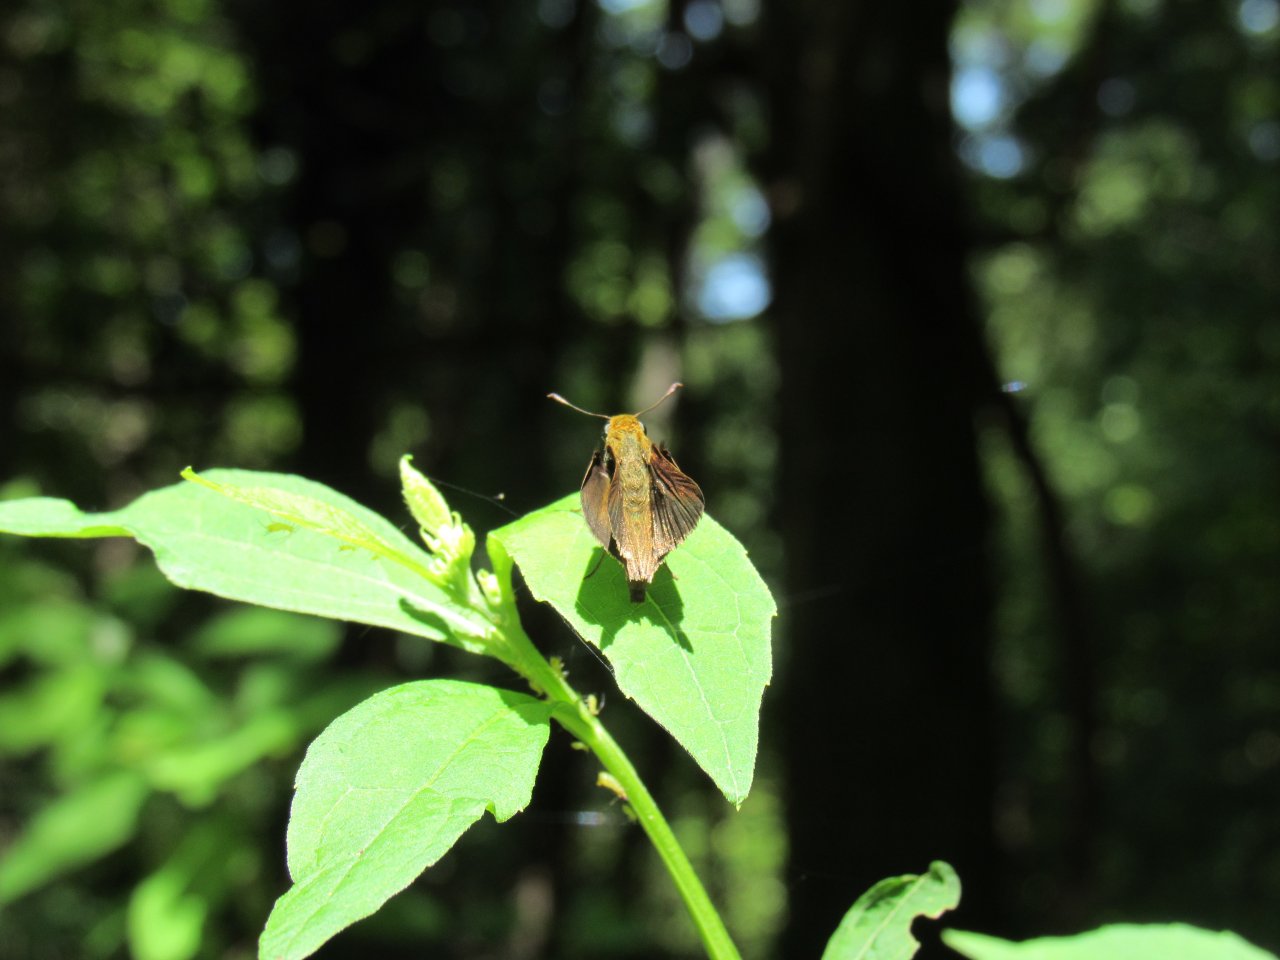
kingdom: Animalia
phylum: Arthropoda
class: Insecta
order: Lepidoptera
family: Hesperiidae
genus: Euphyes
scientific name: Euphyes vestris
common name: Dun Skipper
